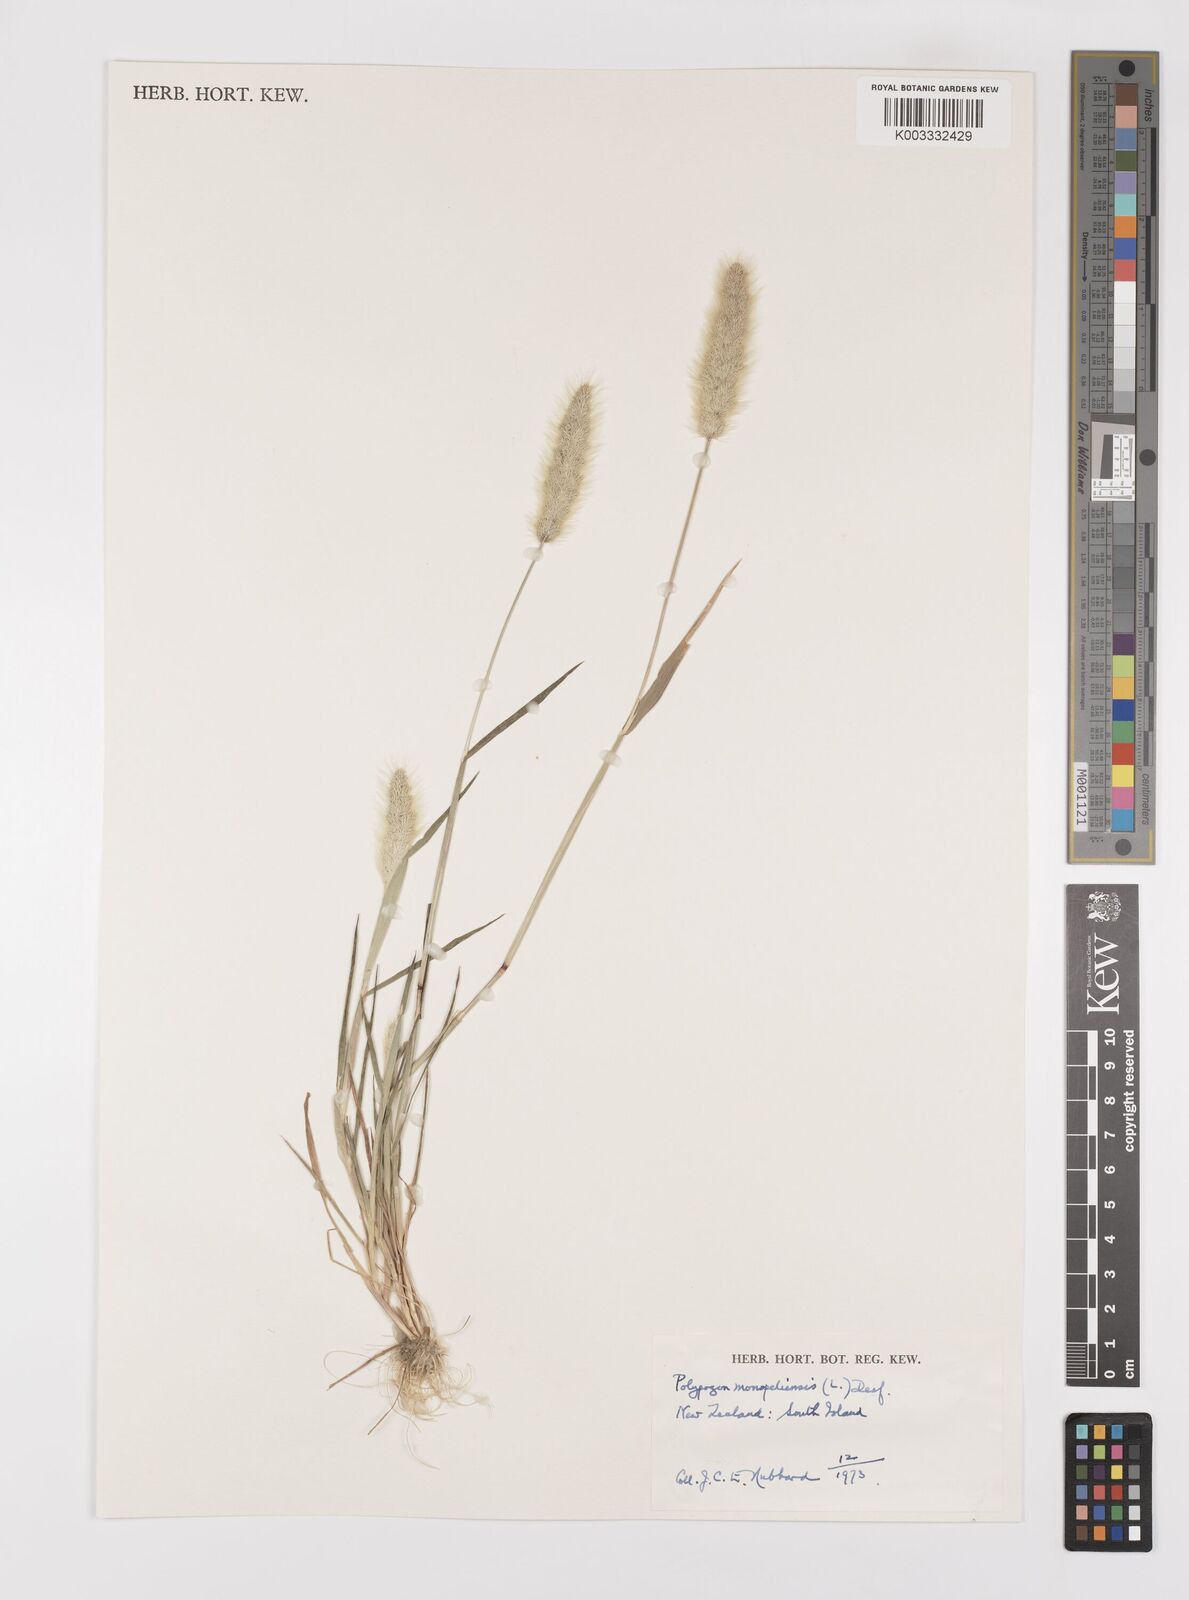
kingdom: Plantae
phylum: Tracheophyta
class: Liliopsida
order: Poales
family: Poaceae
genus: Polypogon
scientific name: Polypogon monspeliensis
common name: Annual rabbitsfoot grass
